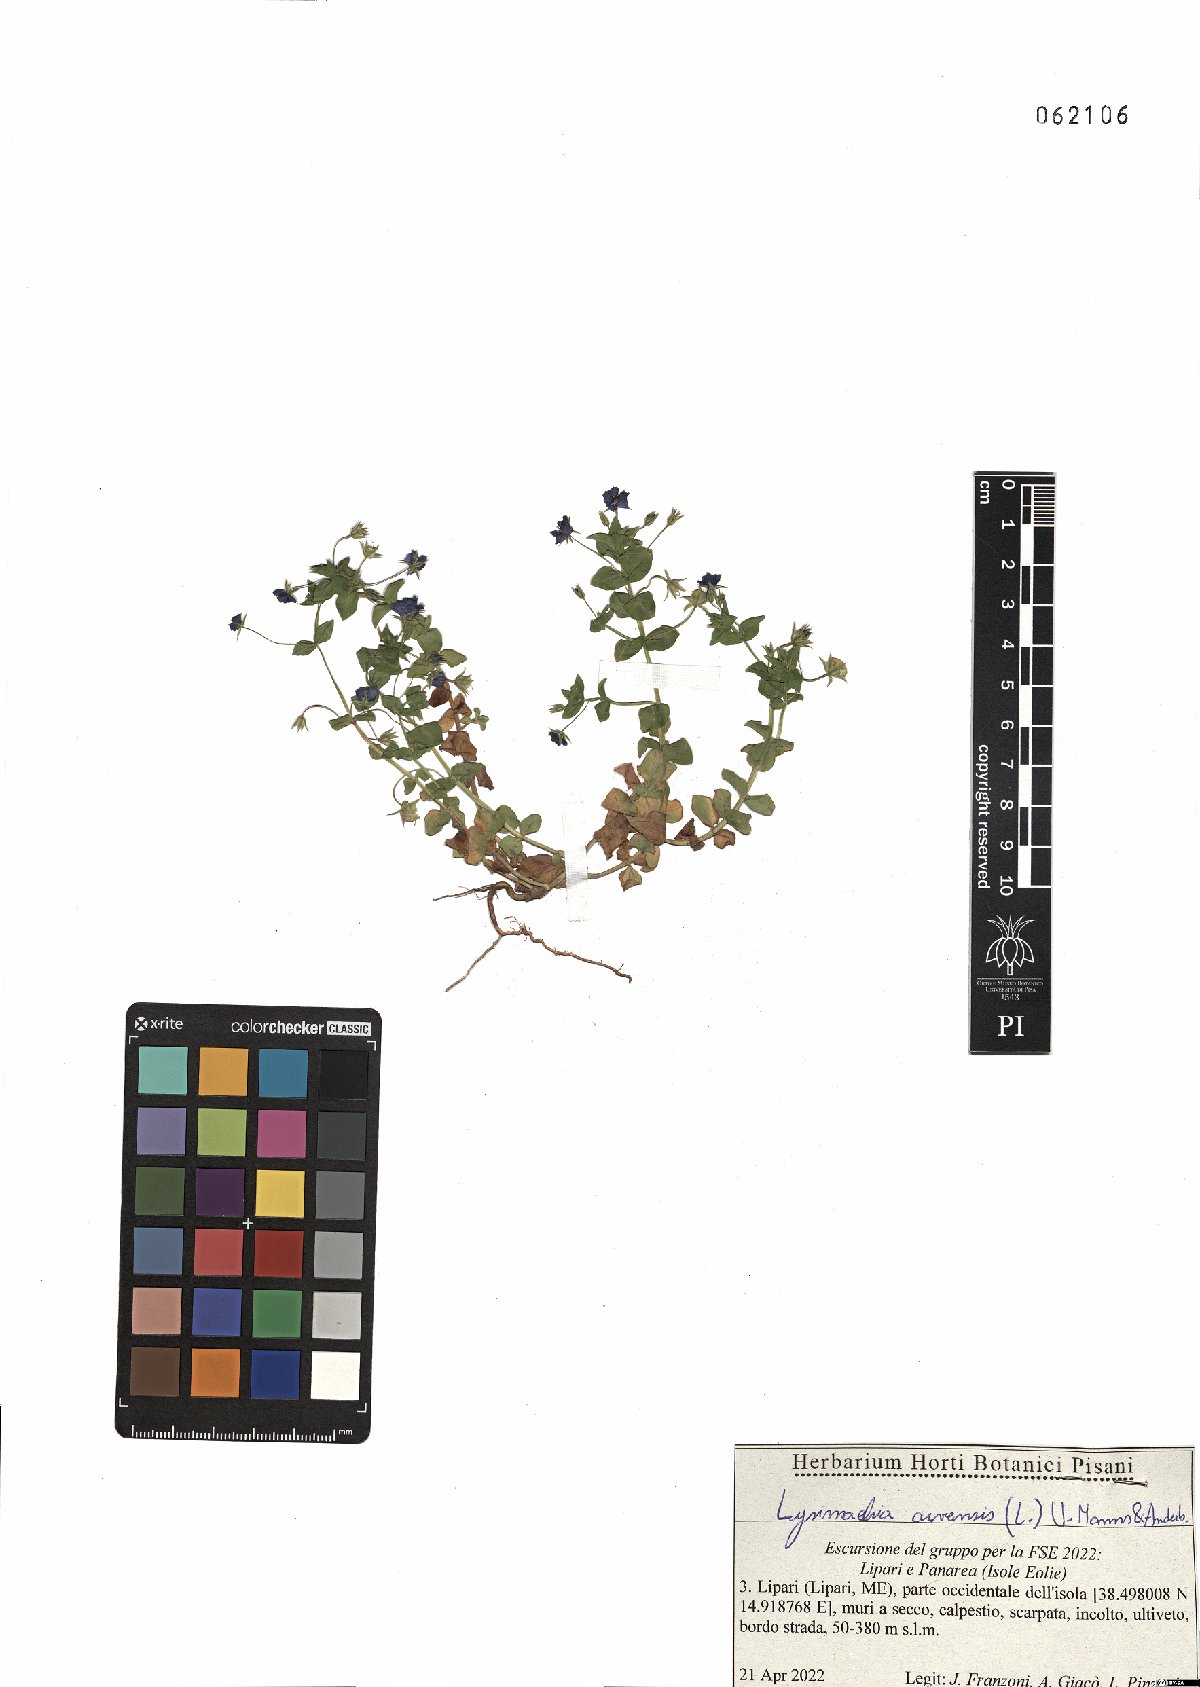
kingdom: Plantae
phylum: Tracheophyta
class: Magnoliopsida
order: Ericales
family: Primulaceae
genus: Lysimachia
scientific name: Lysimachia arvensis
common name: Scarlet pimpernel
